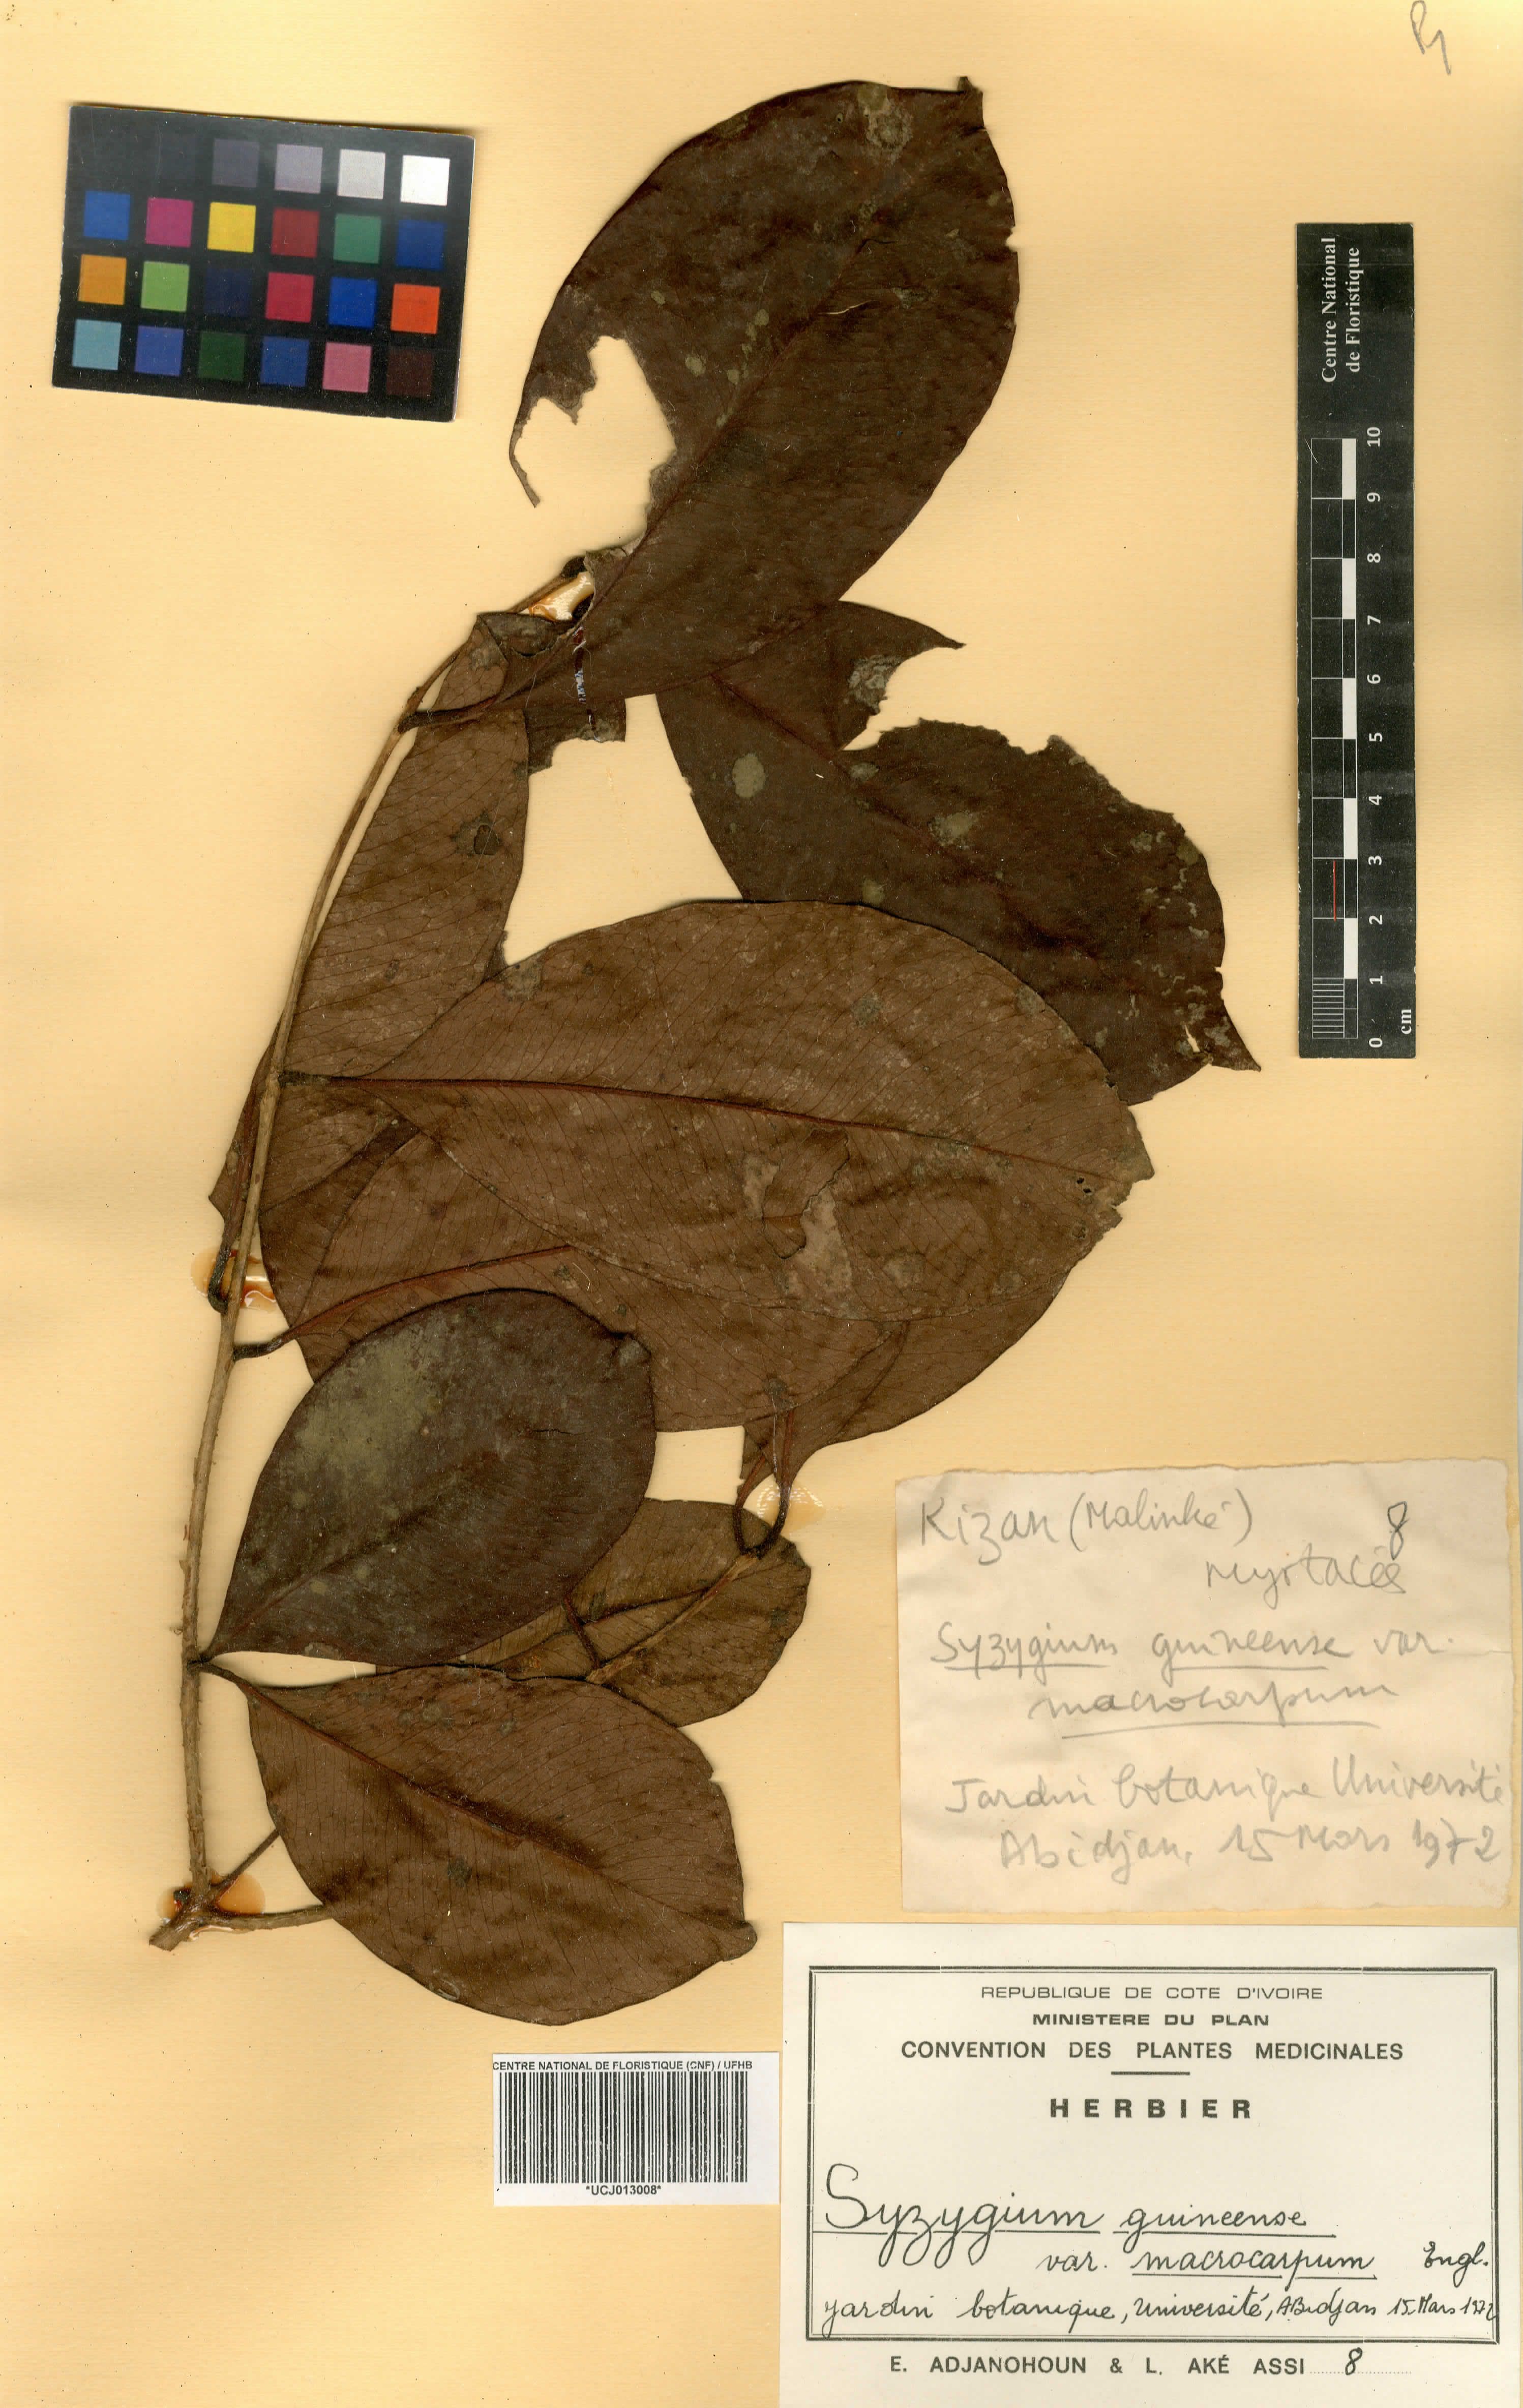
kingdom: Plantae
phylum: Tracheophyta
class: Magnoliopsida
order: Myrtales
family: Myrtaceae
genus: Syzygium
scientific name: Syzygium guineense
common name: Water-pear
